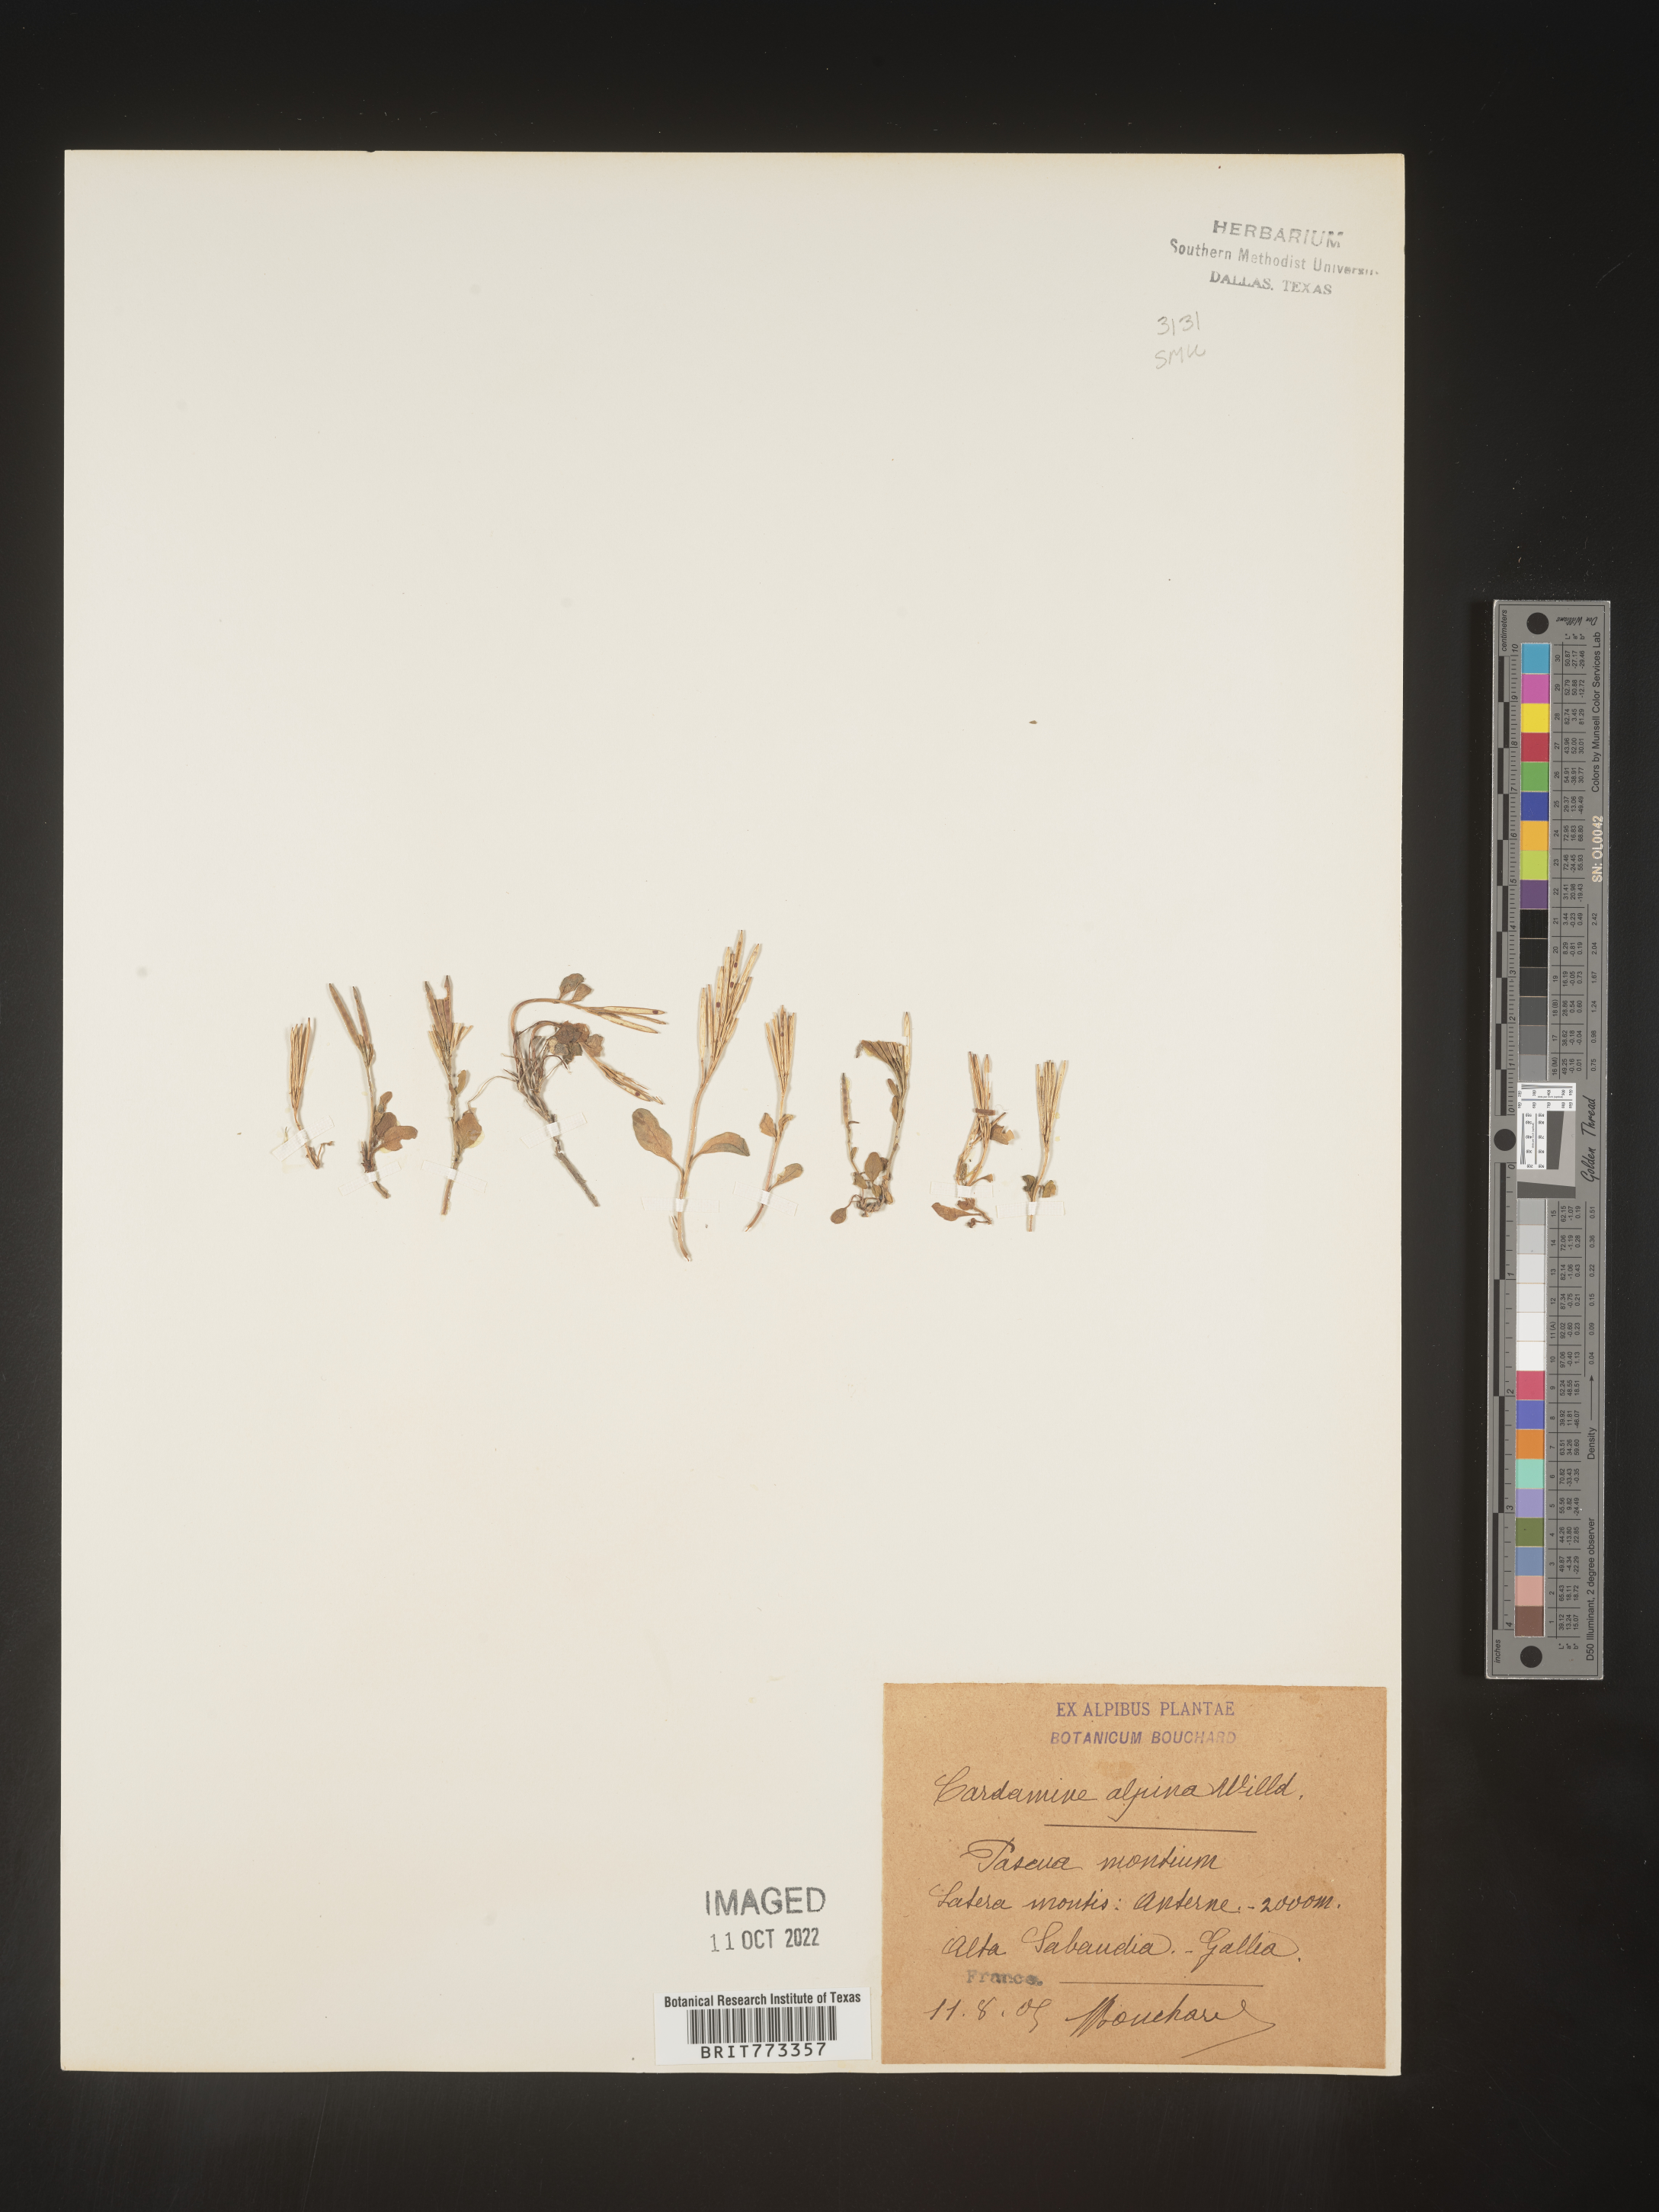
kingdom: Plantae
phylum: Tracheophyta
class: Magnoliopsida
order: Brassicales
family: Brassicaceae
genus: Cardamine
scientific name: Cardamine
